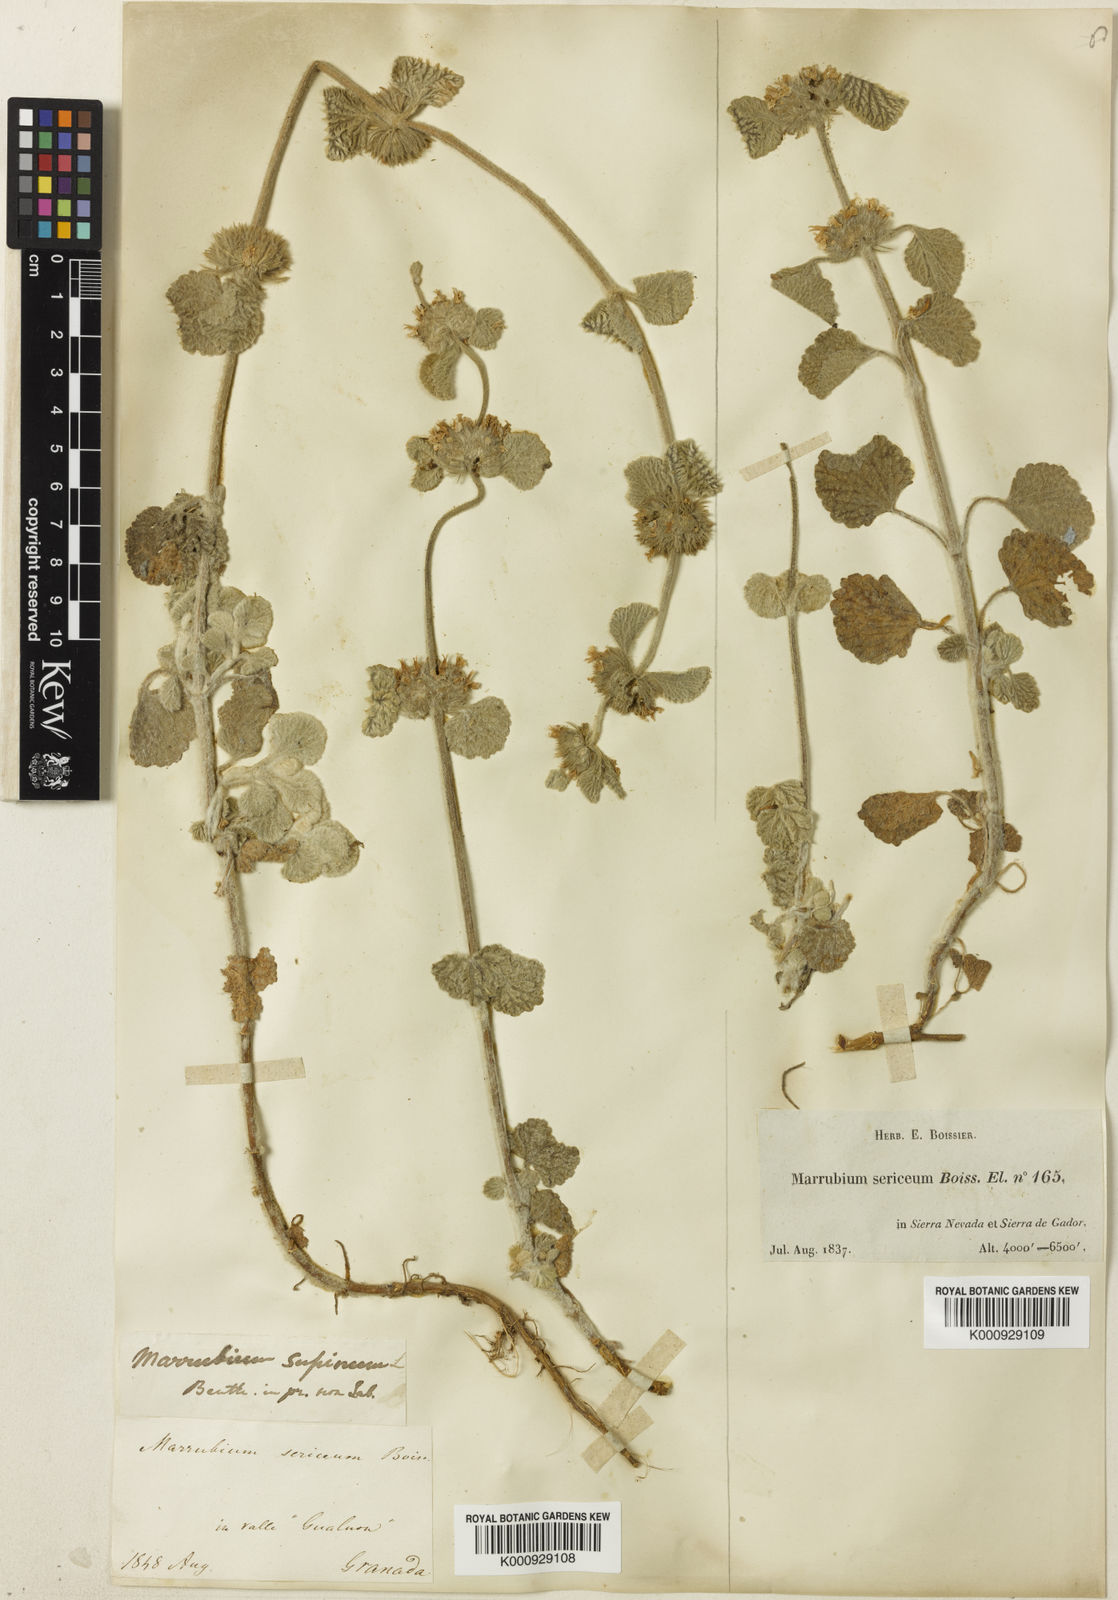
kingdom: Plantae
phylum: Tracheophyta
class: Magnoliopsida
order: Lamiales
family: Lamiaceae
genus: Marrubium
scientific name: Marrubium supinum
